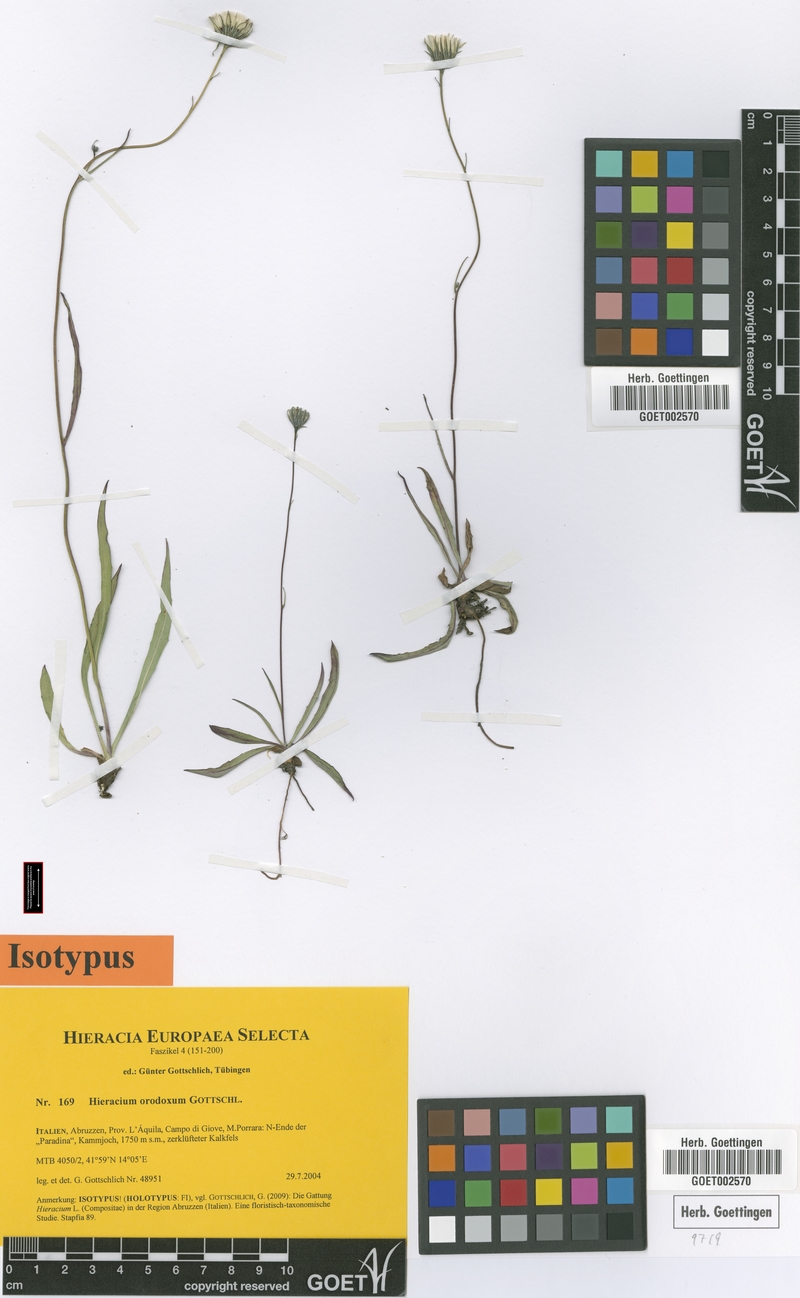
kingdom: Plantae
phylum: Tracheophyta
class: Magnoliopsida
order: Asterales
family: Asteraceae
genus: Hieracium
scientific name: Hieracium orodoxum
